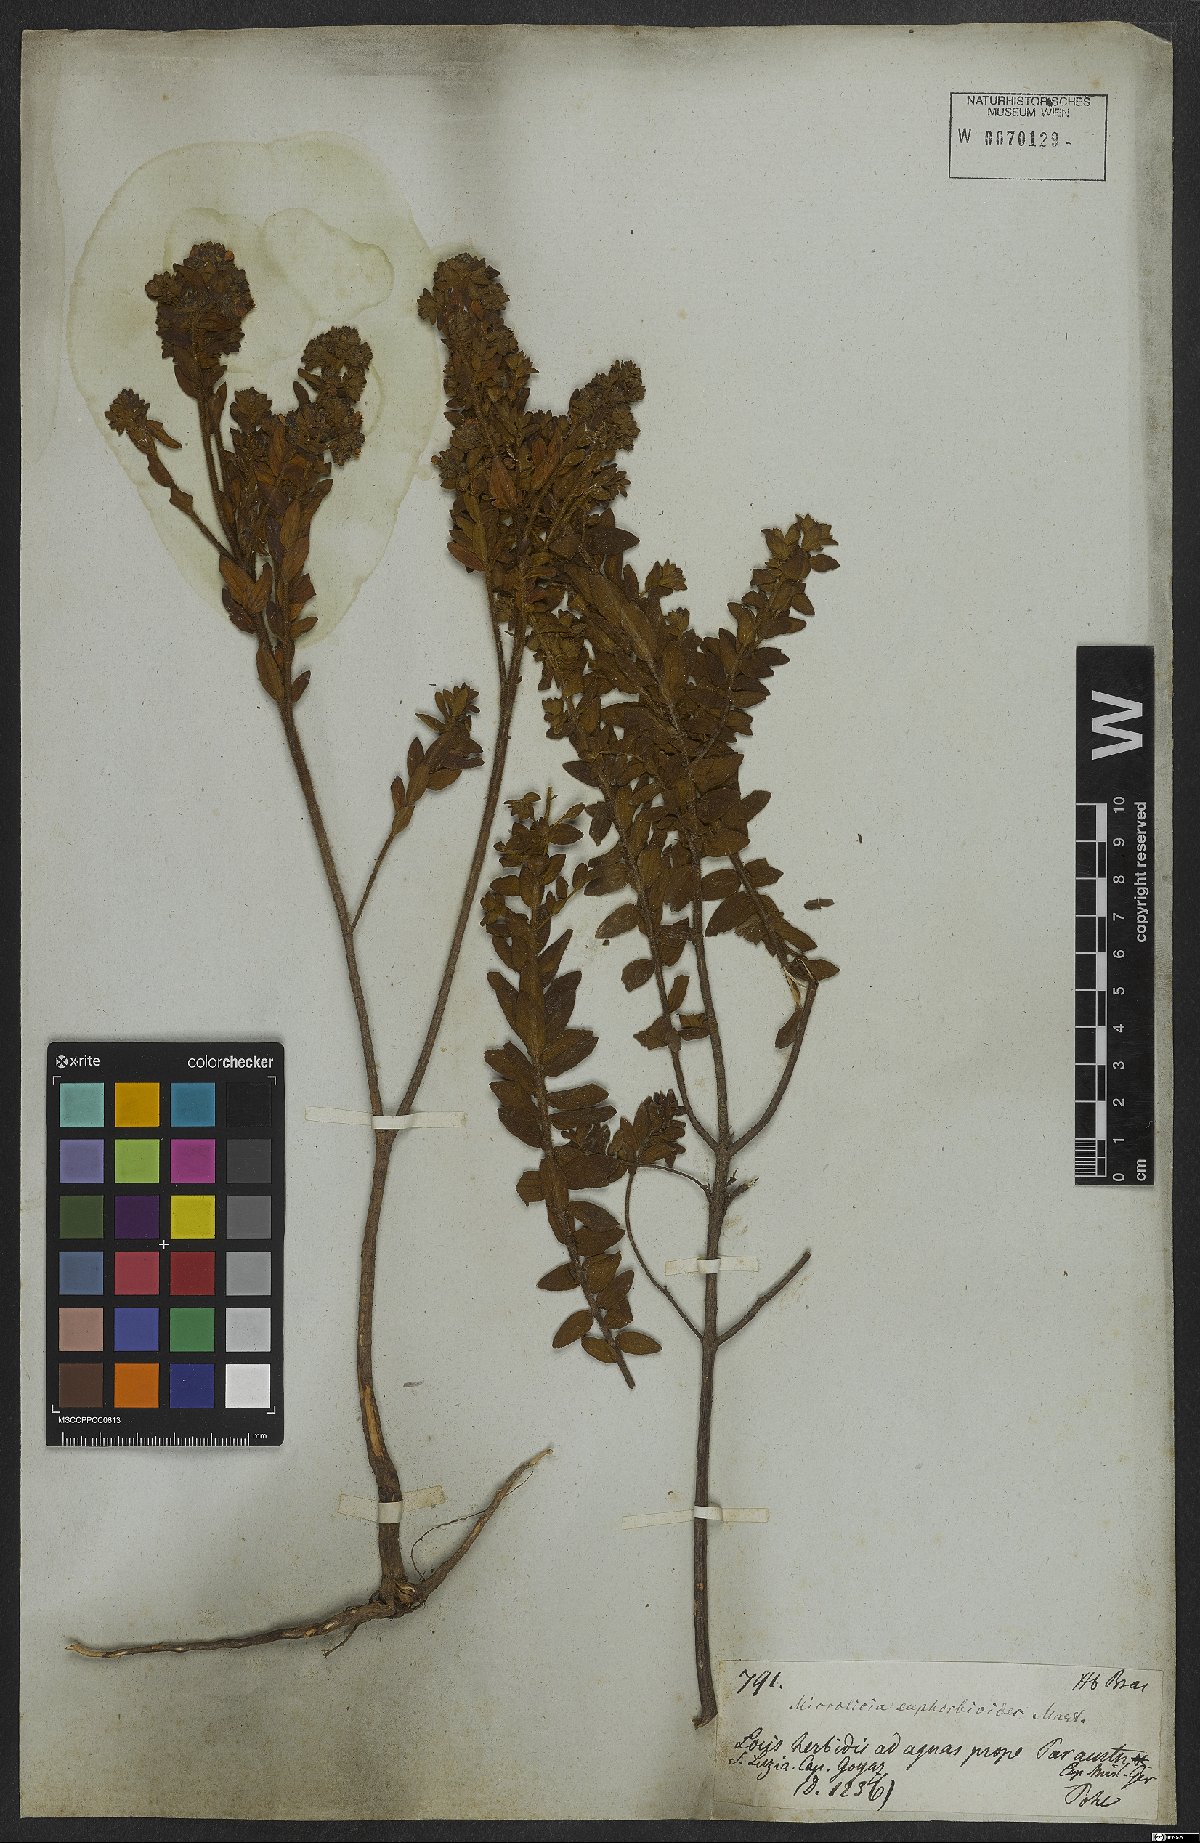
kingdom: Plantae
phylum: Tracheophyta
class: Magnoliopsida
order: Myrtales
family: Melastomataceae
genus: Microlicia
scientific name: Microlicia euphorbioides
